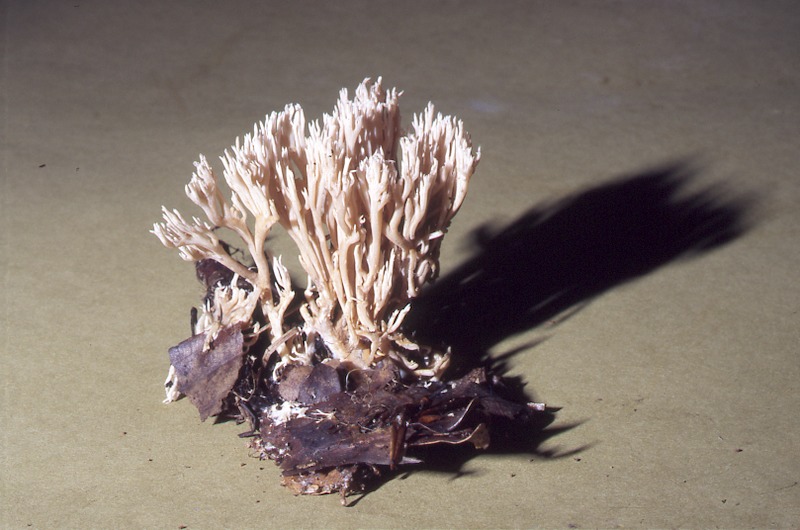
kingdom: Fungi
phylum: Basidiomycota
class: Agaricomycetes
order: Gomphales
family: Gomphaceae
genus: Ramaria
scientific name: Ramaria gracilis
